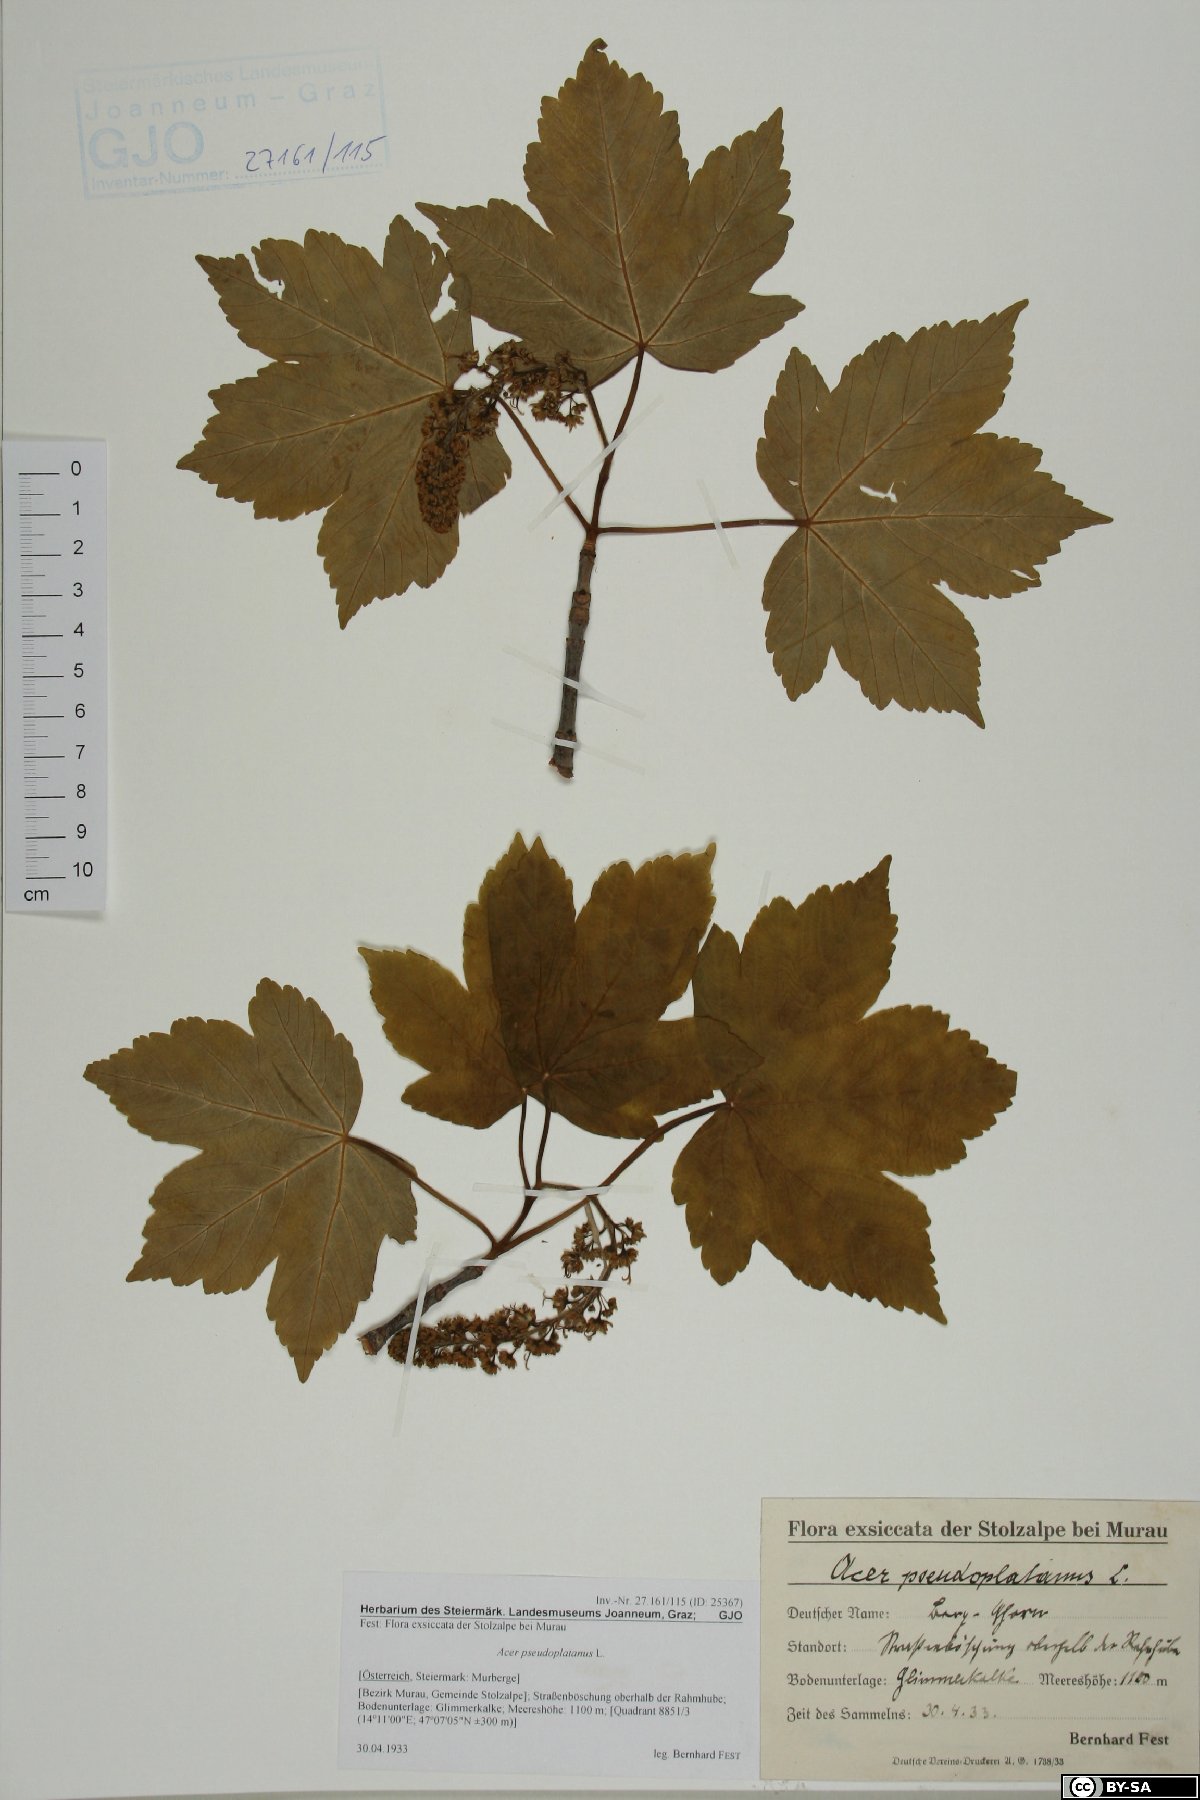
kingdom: Plantae
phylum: Tracheophyta
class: Magnoliopsida
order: Sapindales
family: Sapindaceae
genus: Acer
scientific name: Acer pseudoplatanus
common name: Sycamore
